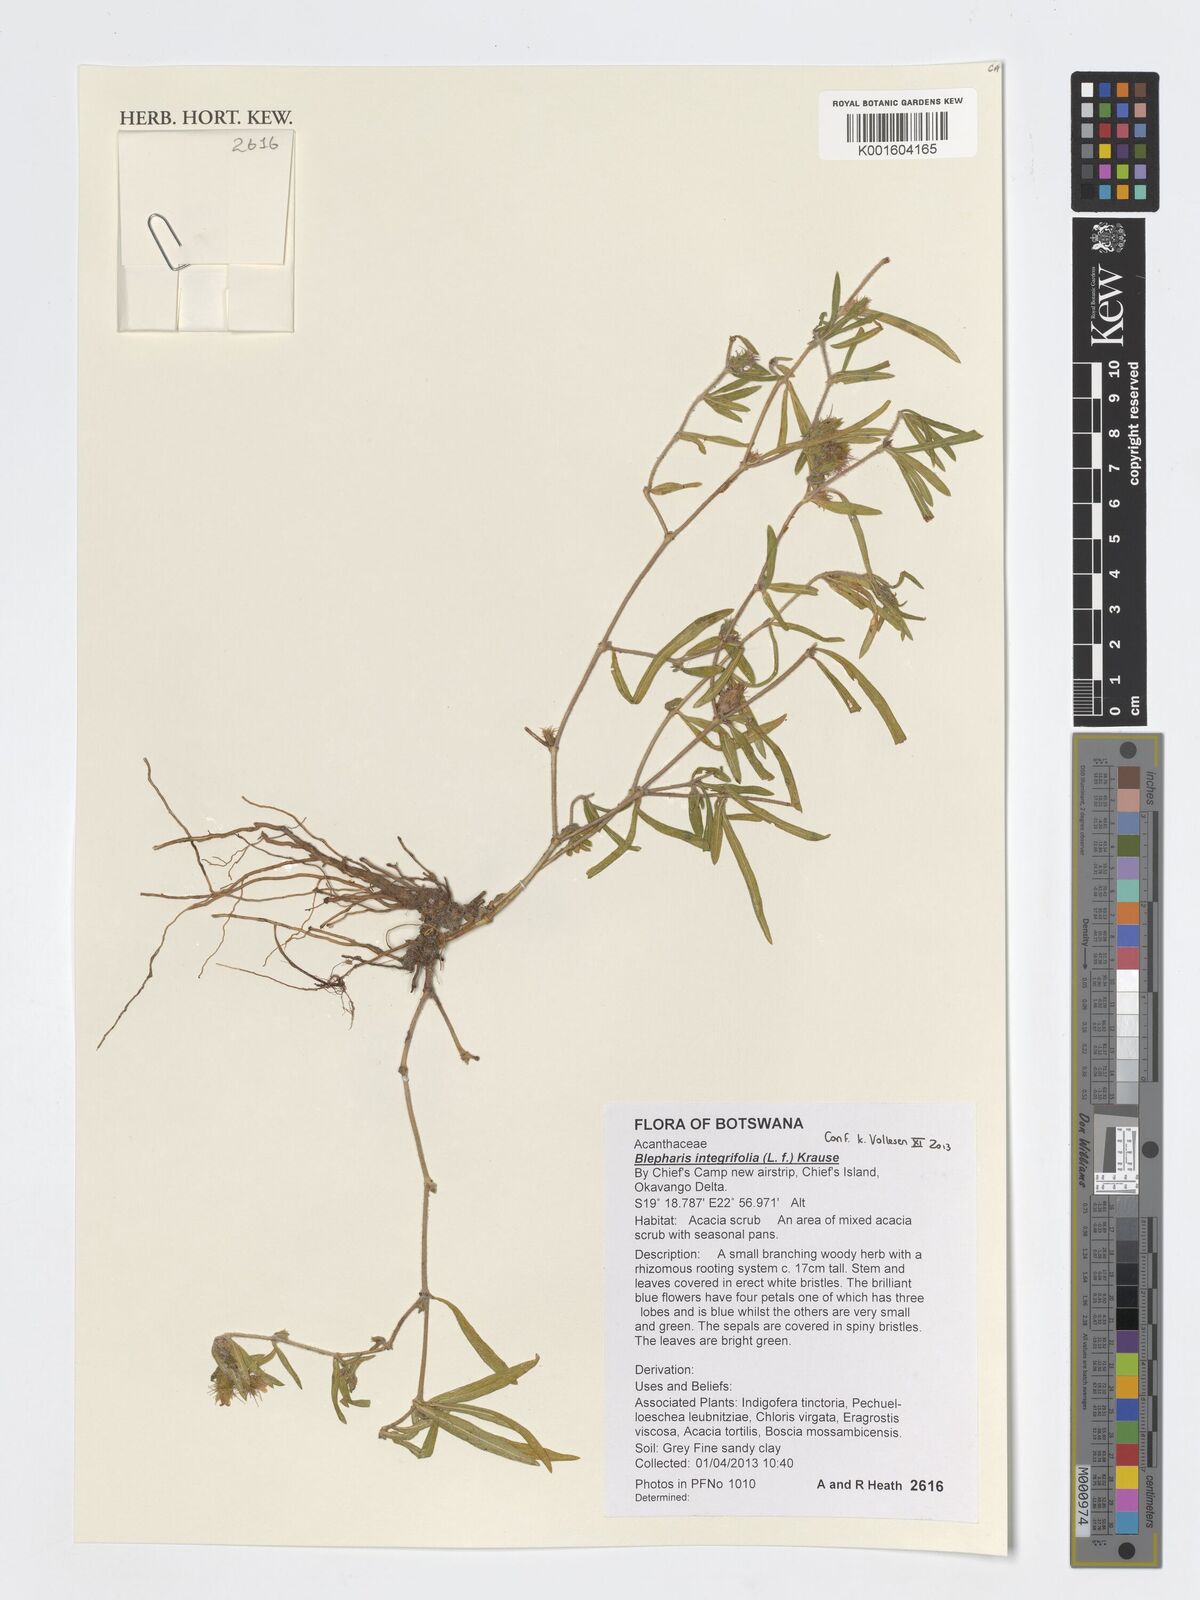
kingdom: Plantae
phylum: Tracheophyta
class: Magnoliopsida
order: Lamiales
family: Acanthaceae
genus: Blepharis
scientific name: Blepharis integrifolia
